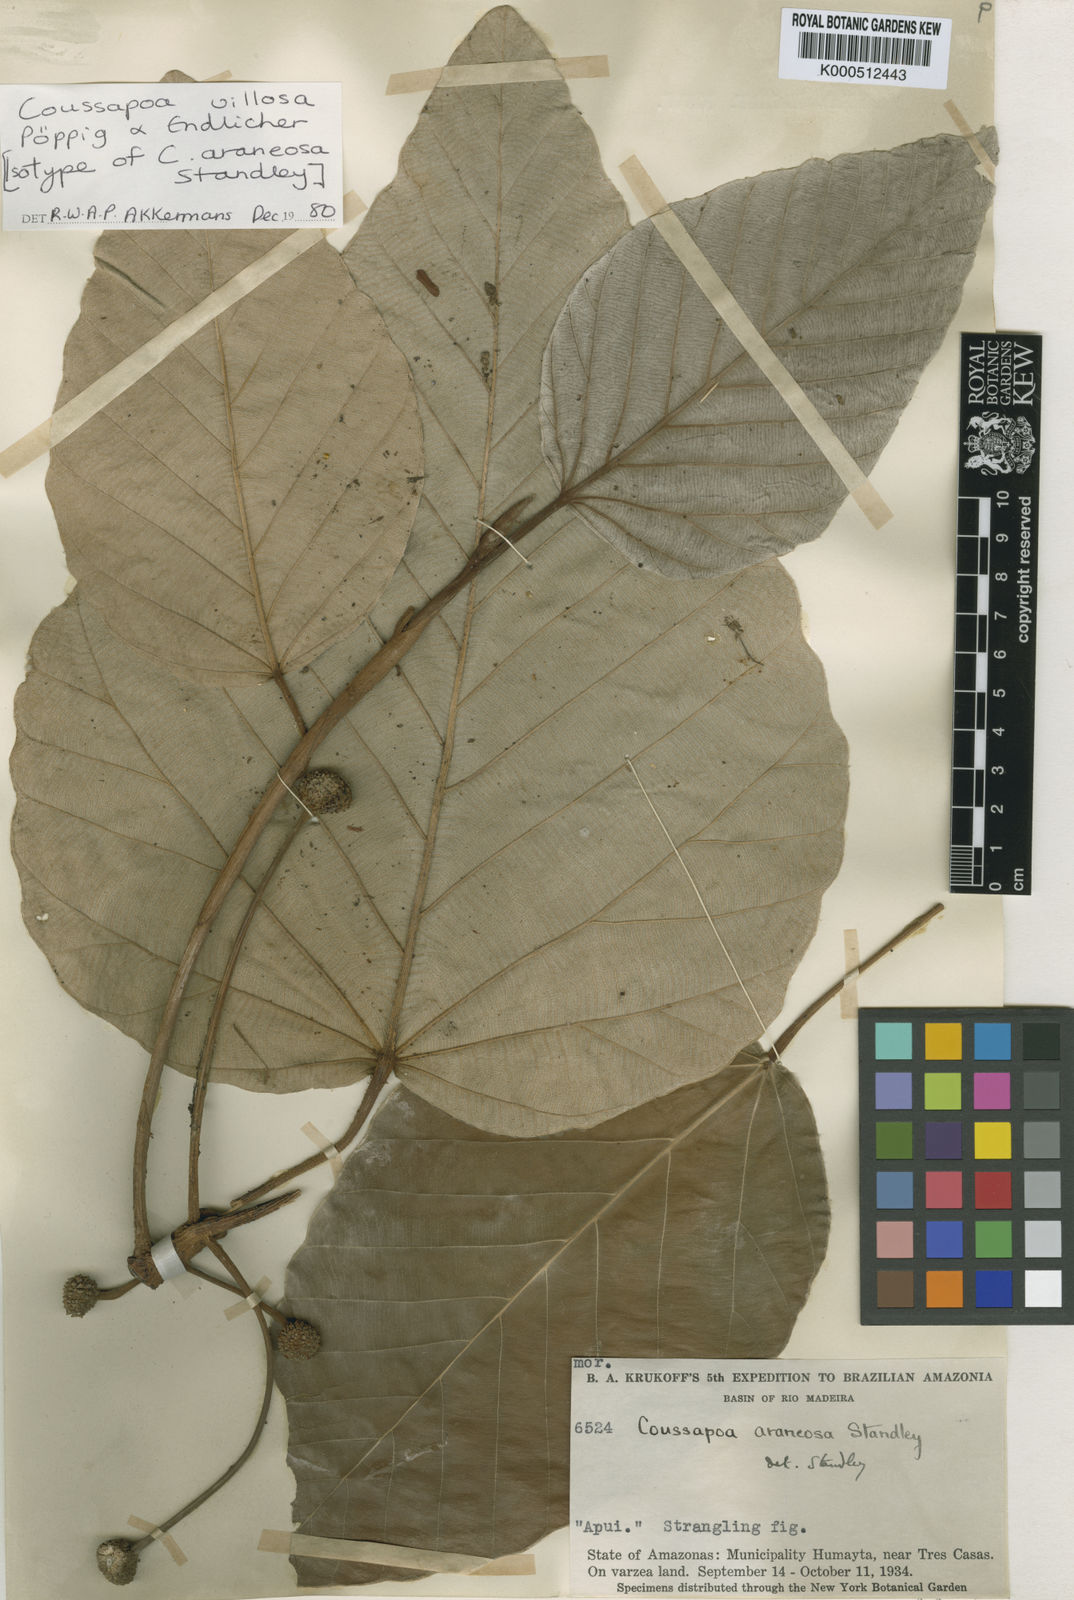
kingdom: Plantae
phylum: Tracheophyta
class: Magnoliopsida
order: Rosales
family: Urticaceae
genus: Coussapoa
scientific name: Coussapoa villosa
